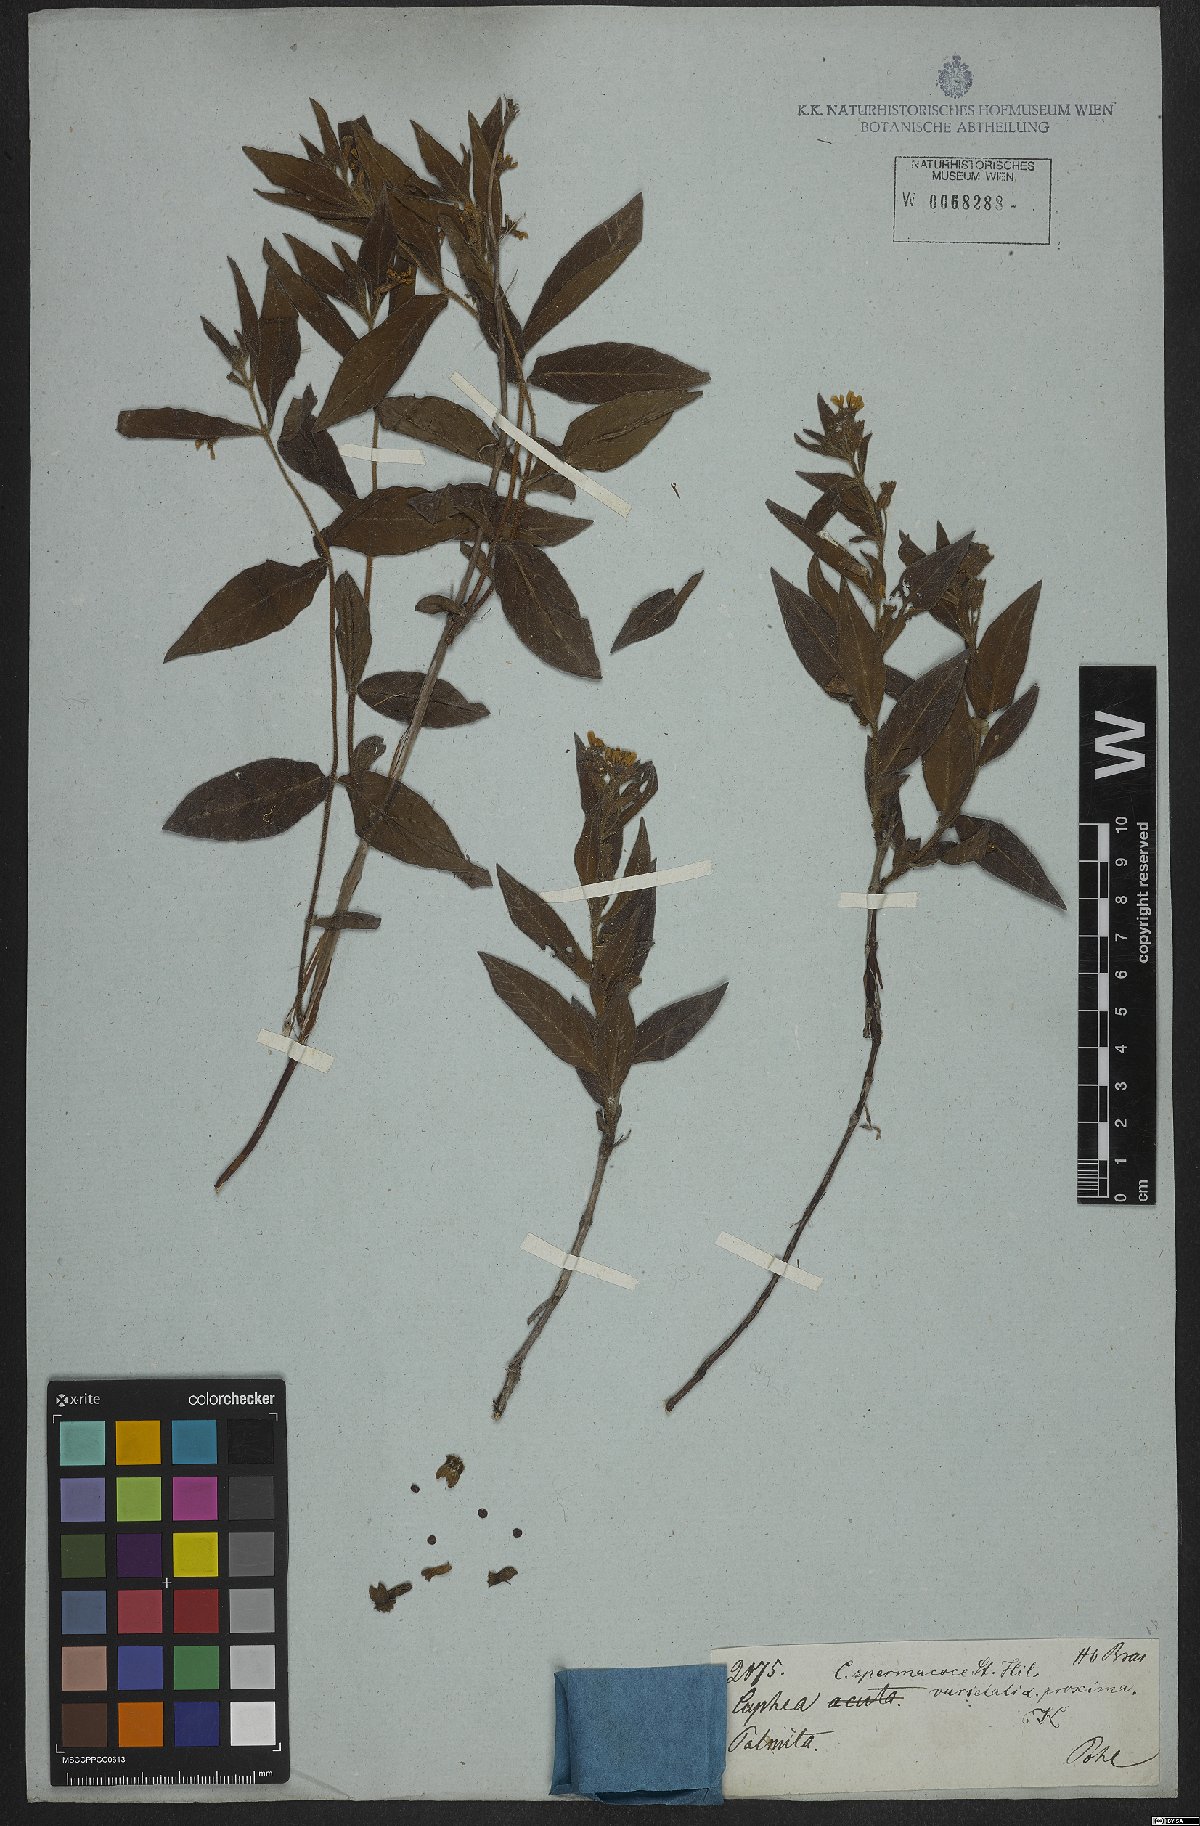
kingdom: Plantae
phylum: Tracheophyta
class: Magnoliopsida
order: Myrtales
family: Lythraceae
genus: Cuphea
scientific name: Cuphea spermacoce
